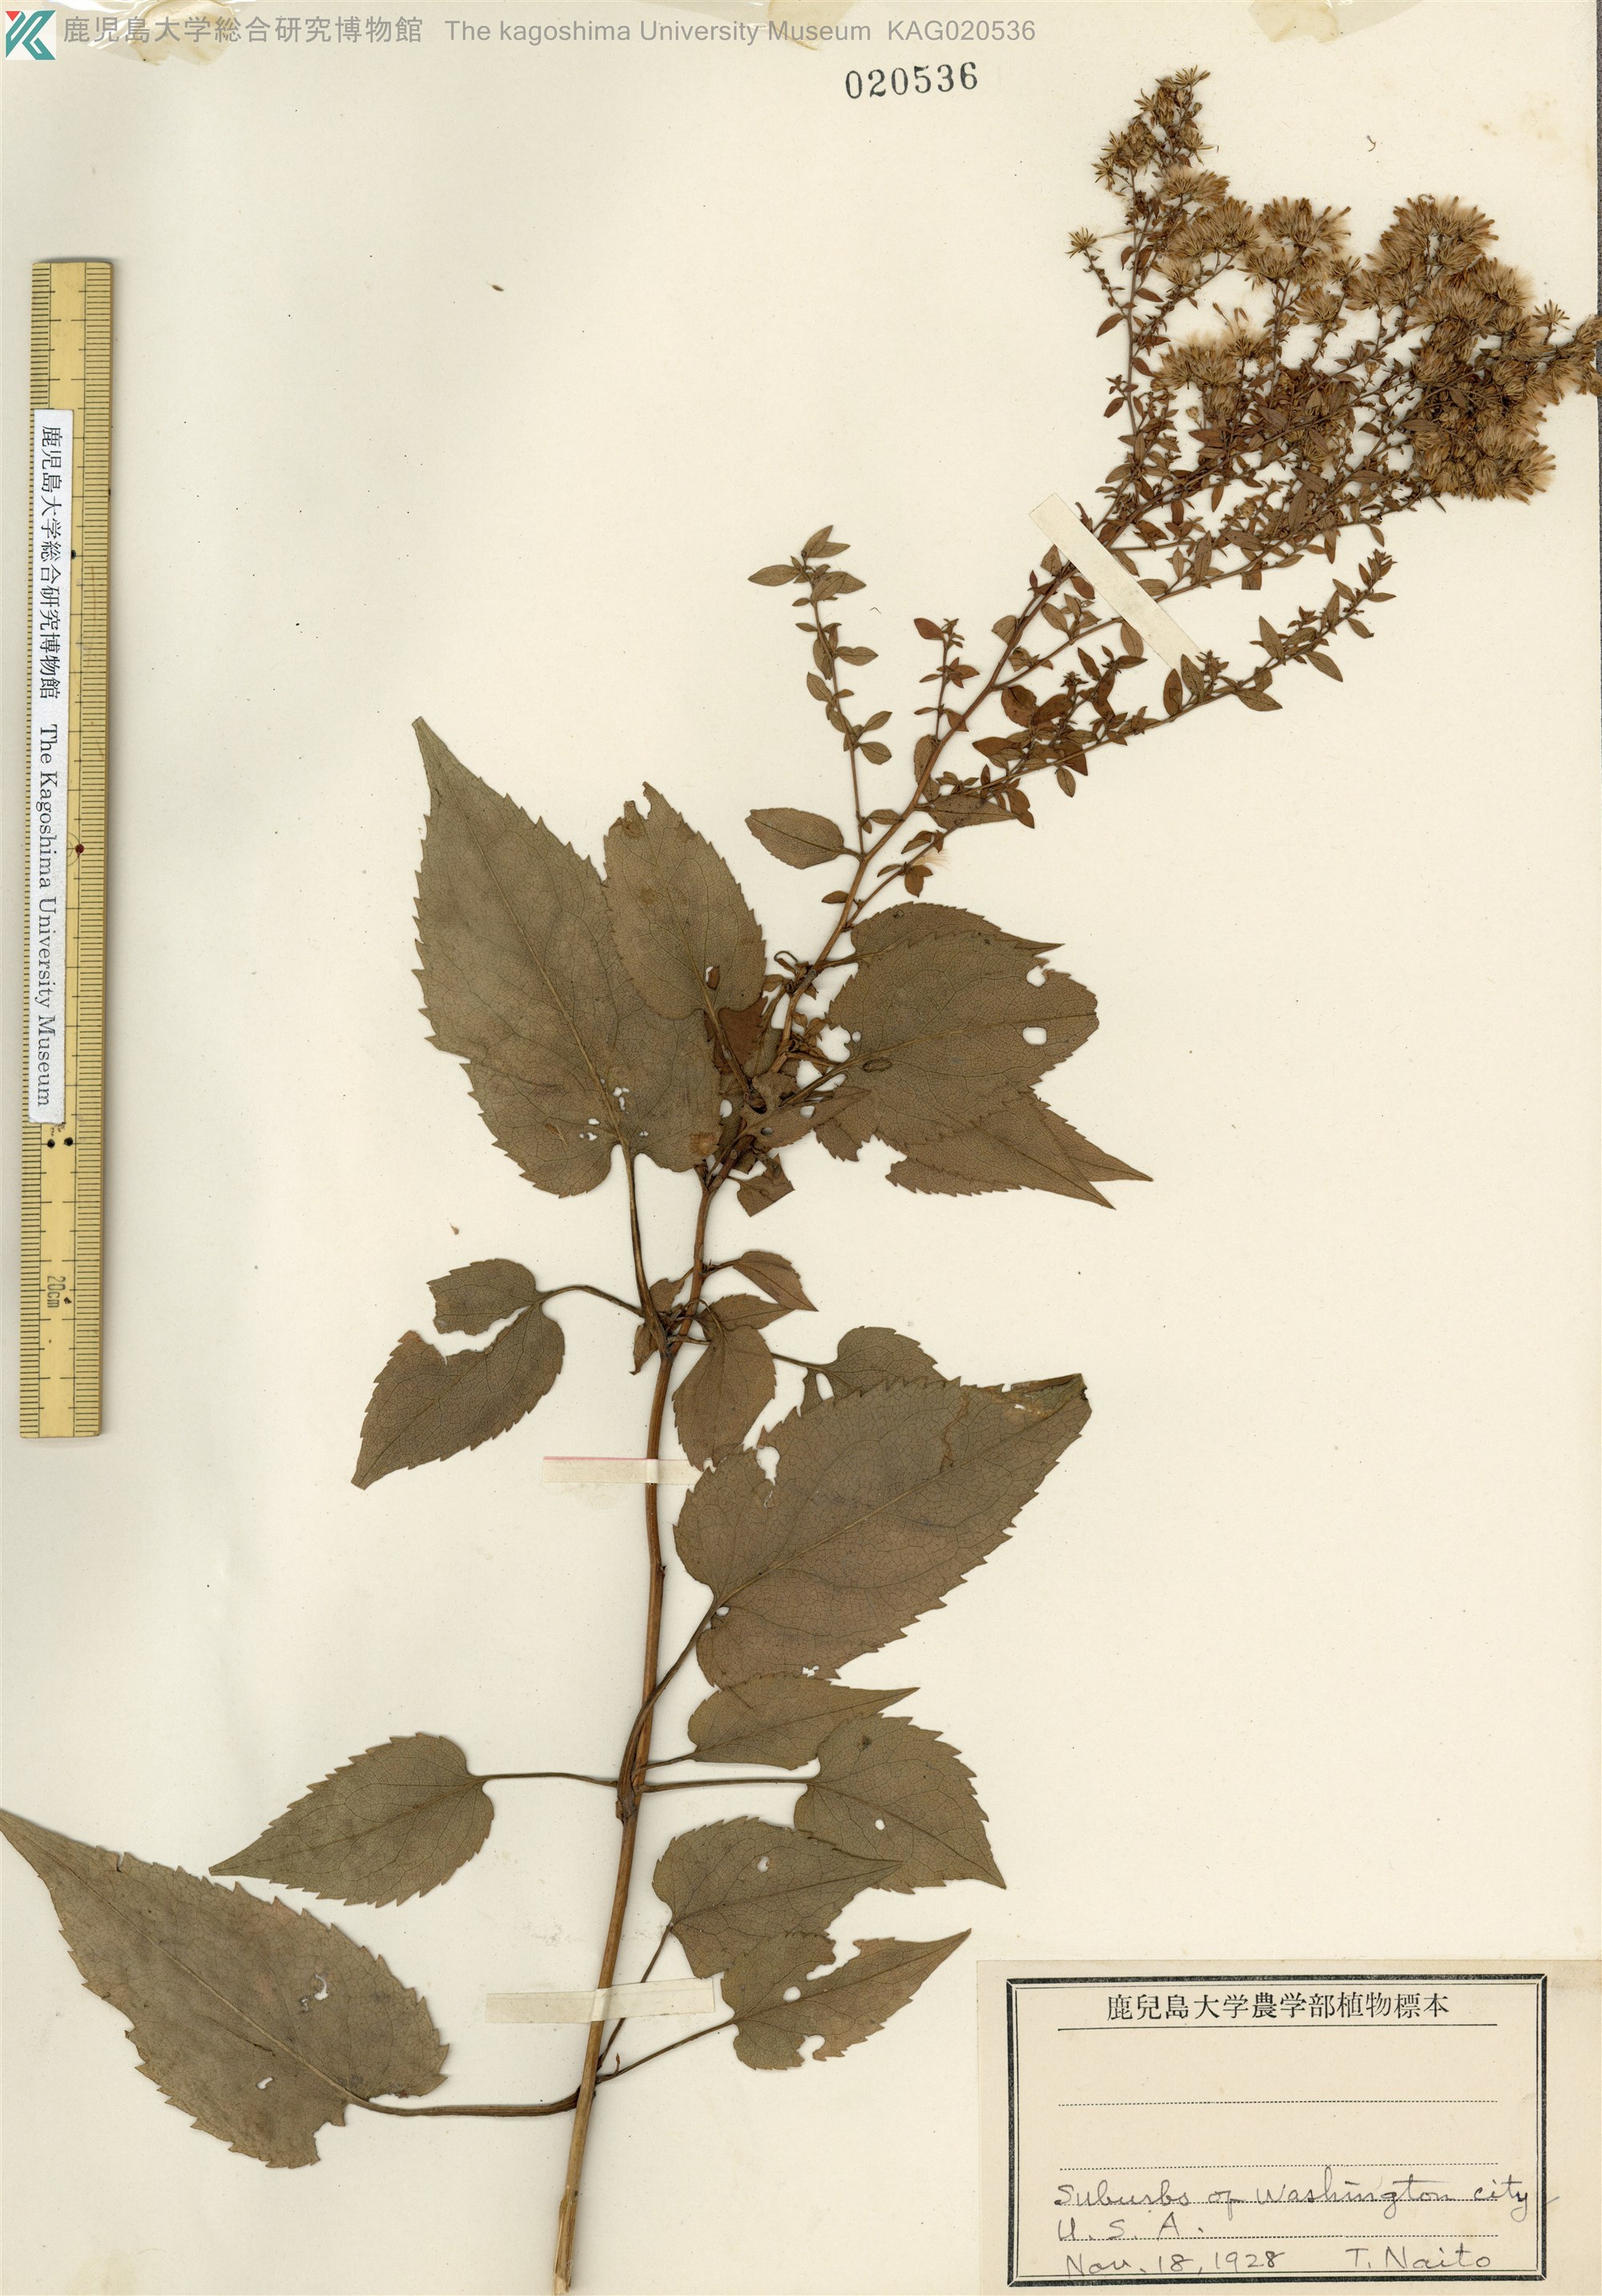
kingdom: Plantae
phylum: Tracheophyta
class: Magnoliopsida
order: Asterales
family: Asteraceae
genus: Aster
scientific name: Aster
